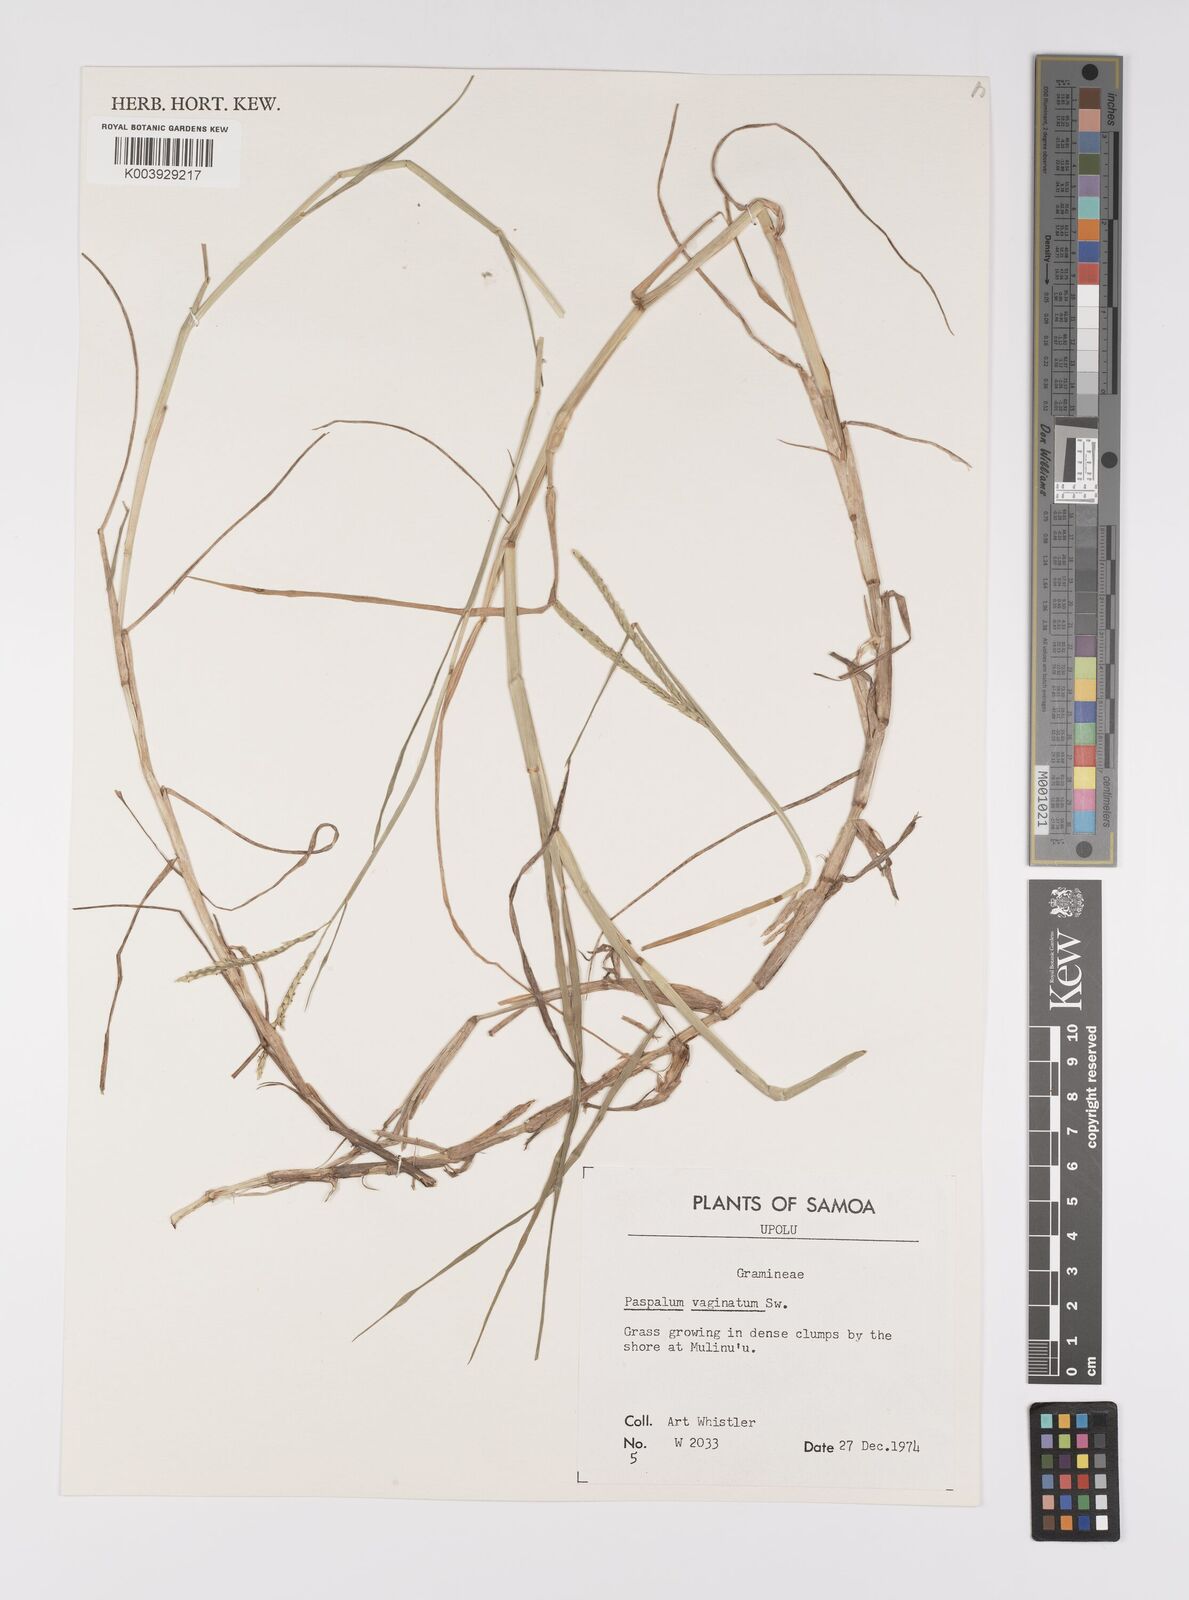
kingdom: Plantae
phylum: Tracheophyta
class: Liliopsida
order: Poales
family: Poaceae
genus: Paspalum
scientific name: Paspalum vaginatum
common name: Seashore paspalum
